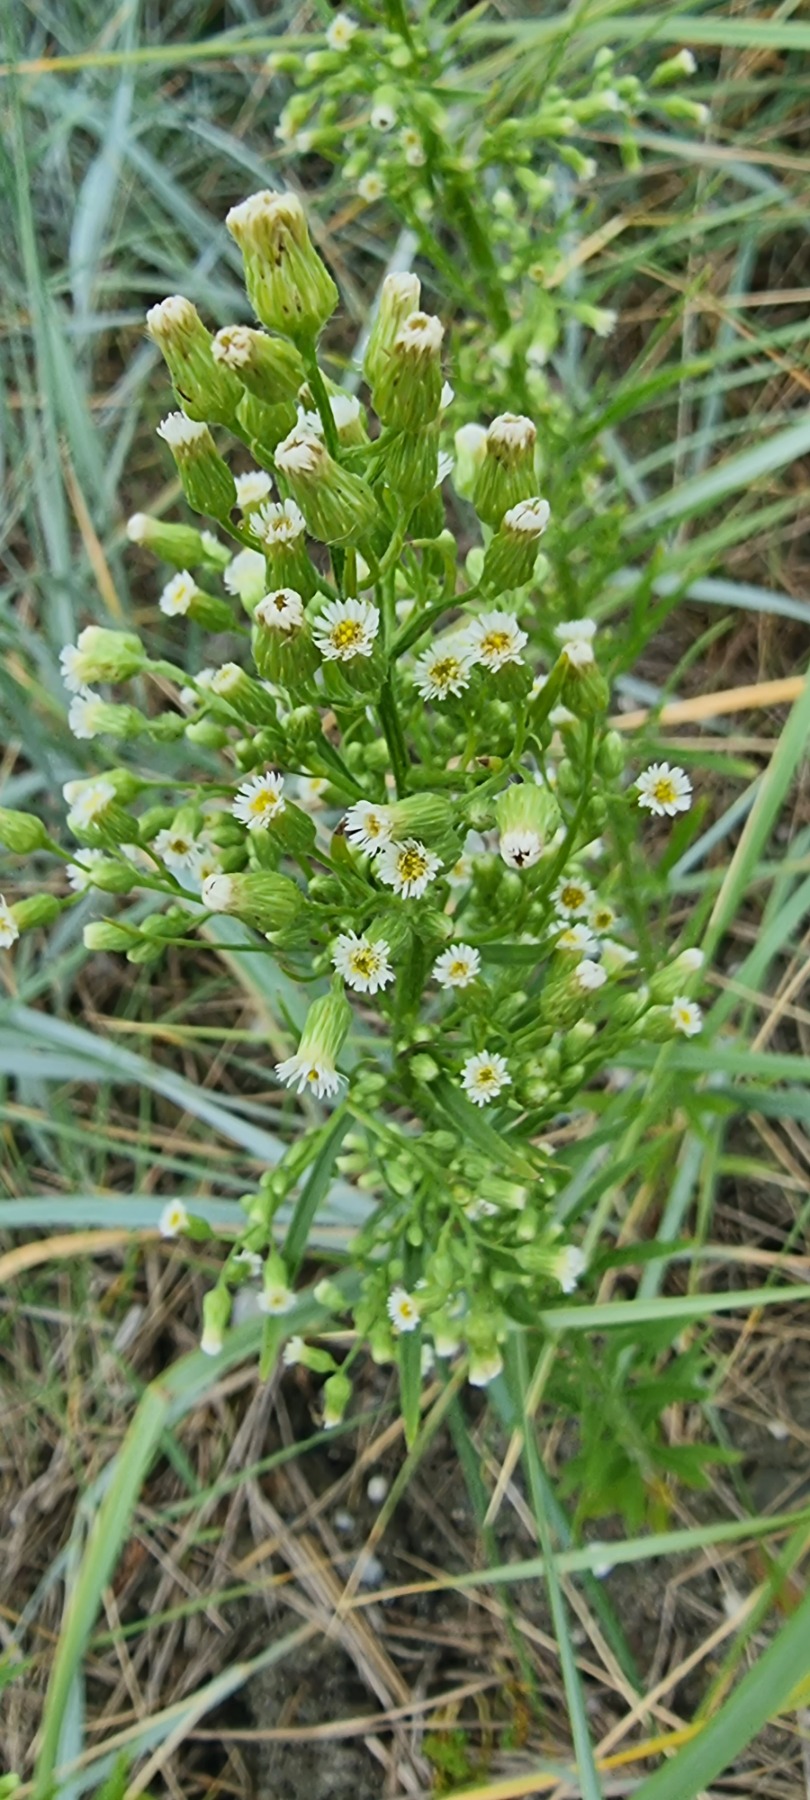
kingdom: Plantae
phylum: Tracheophyta
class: Magnoliopsida
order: Asterales
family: Asteraceae
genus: Erigeron
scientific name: Erigeron canadensis
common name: Kanadisk bakkestjerne
